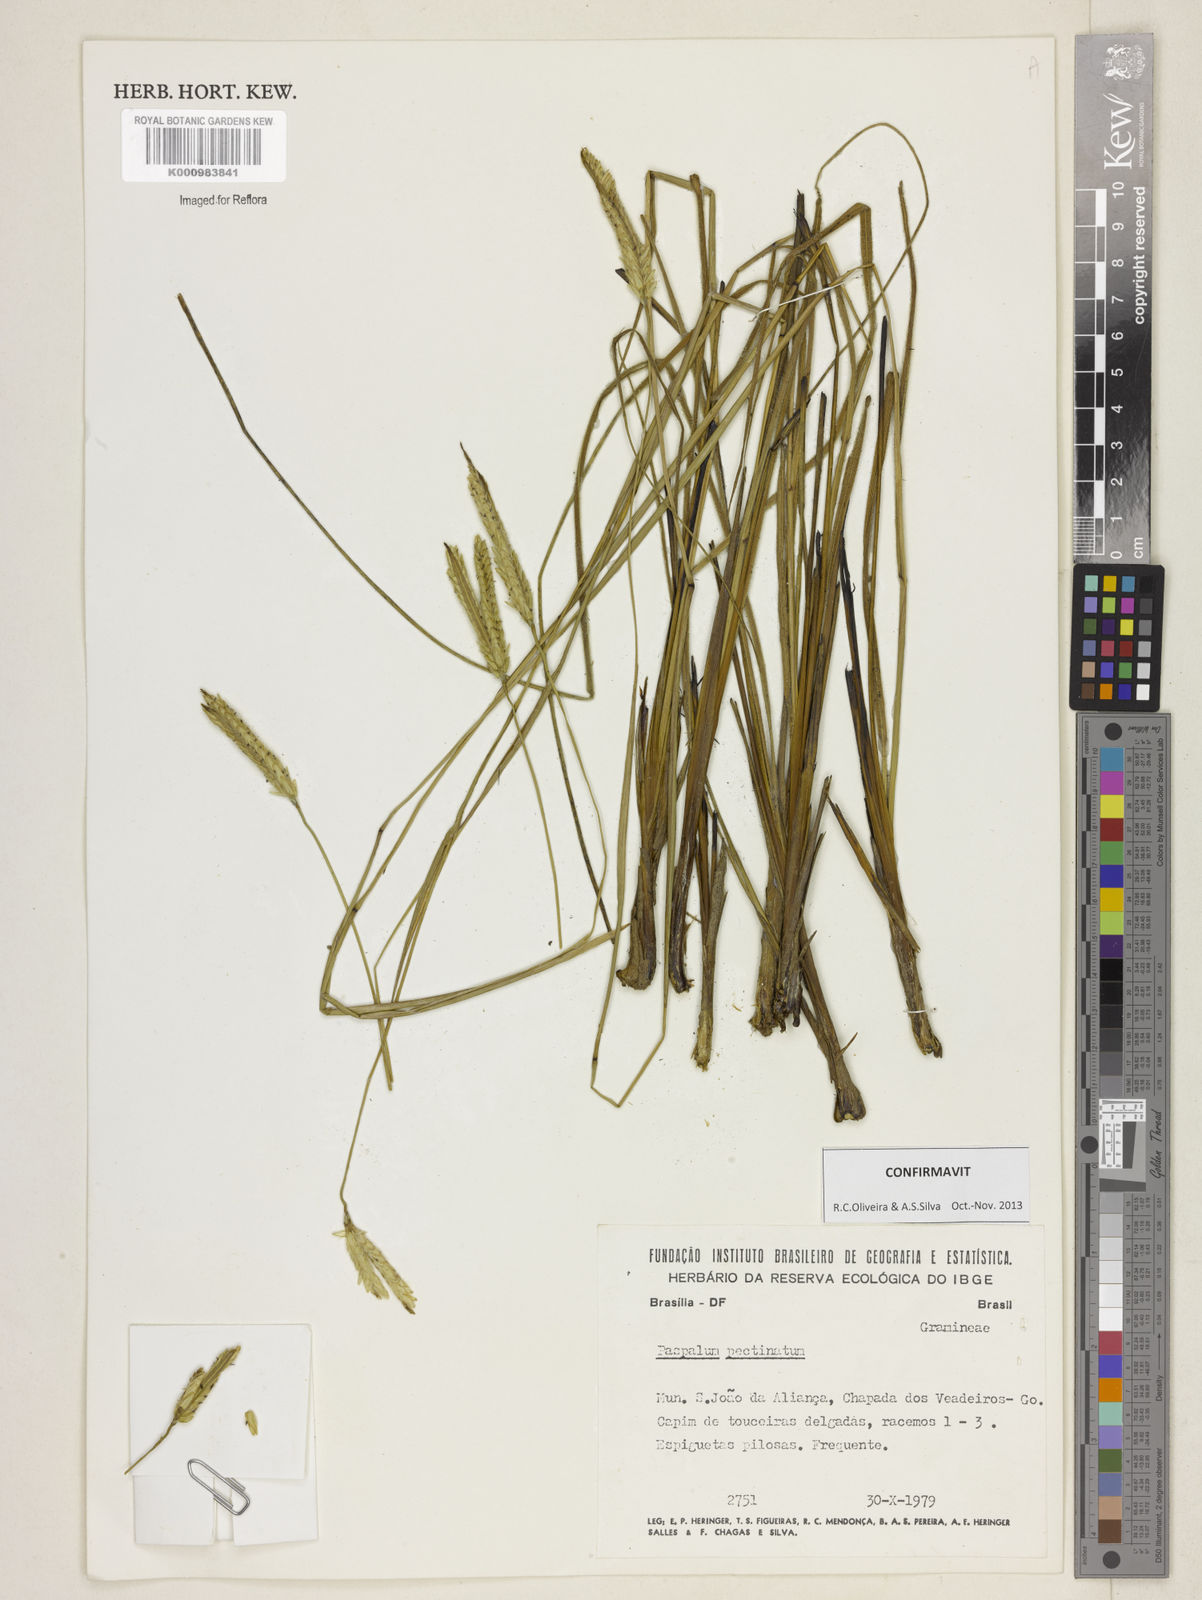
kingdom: Plantae
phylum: Tracheophyta
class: Liliopsida
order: Poales
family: Poaceae
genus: Paspalum
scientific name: Paspalum
